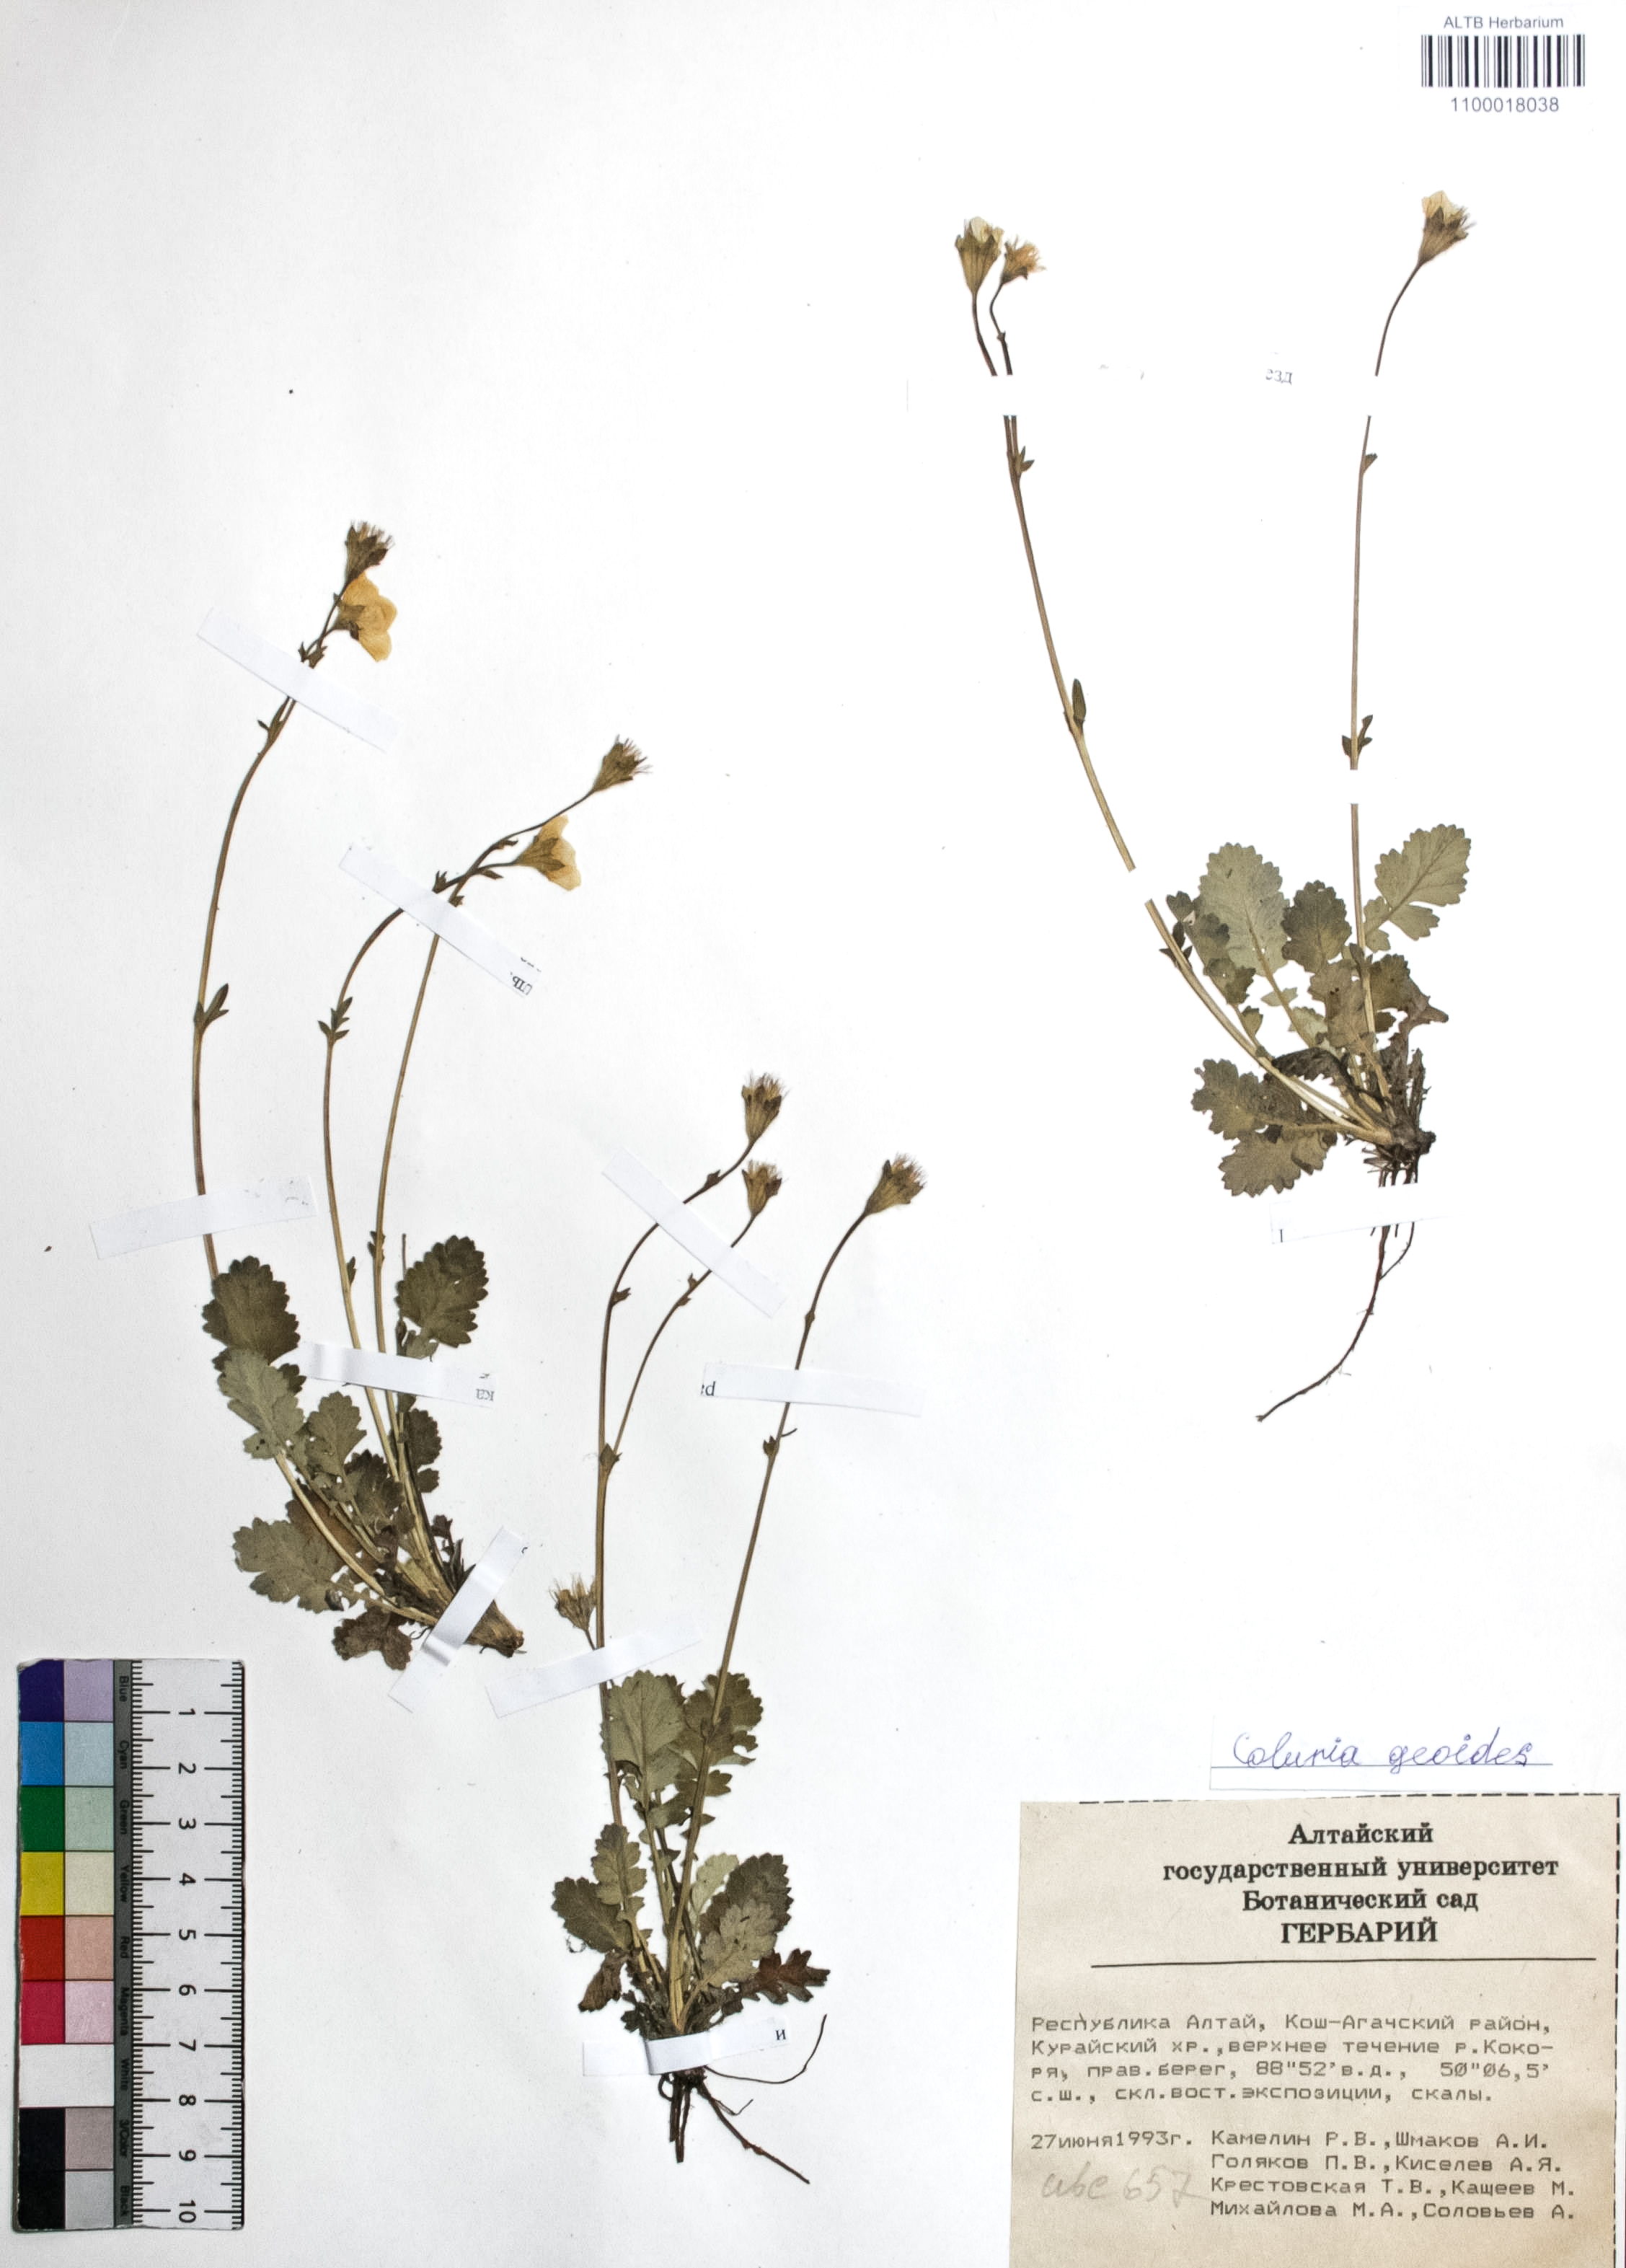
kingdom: Plantae
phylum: Tracheophyta
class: Magnoliopsida
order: Rosales
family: Rosaceae
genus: Geum
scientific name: Geum geoides
